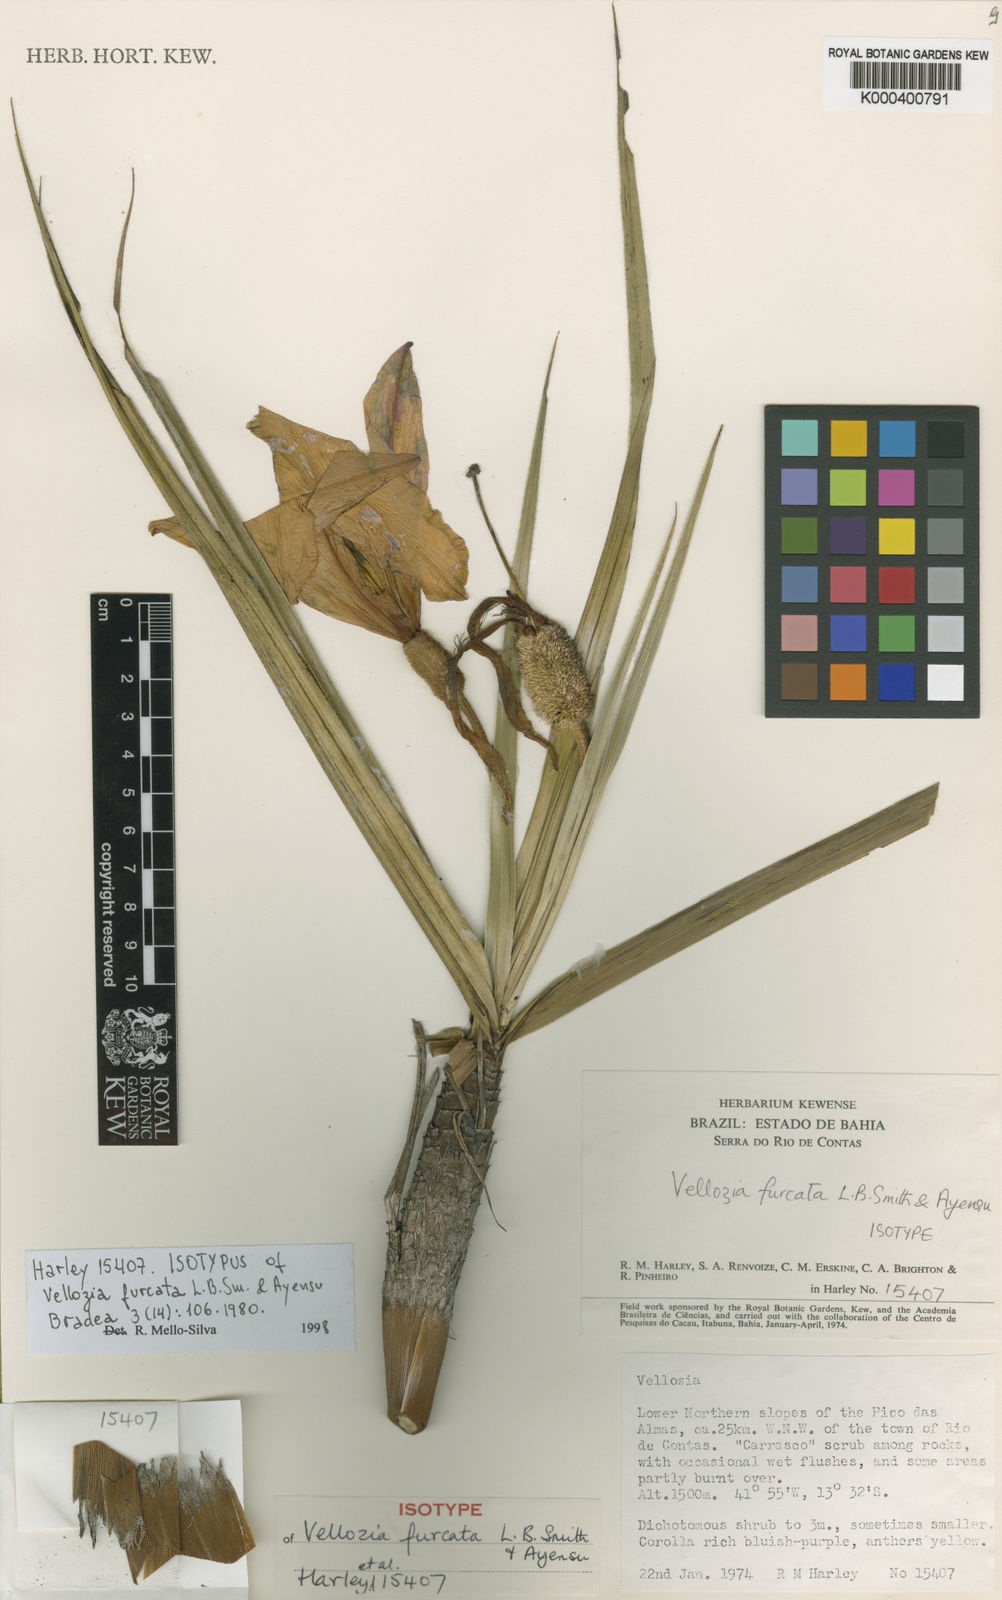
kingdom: Plantae
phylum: Tracheophyta
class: Liliopsida
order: Pandanales
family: Velloziaceae
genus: Vellozia
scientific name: Vellozia furcata
